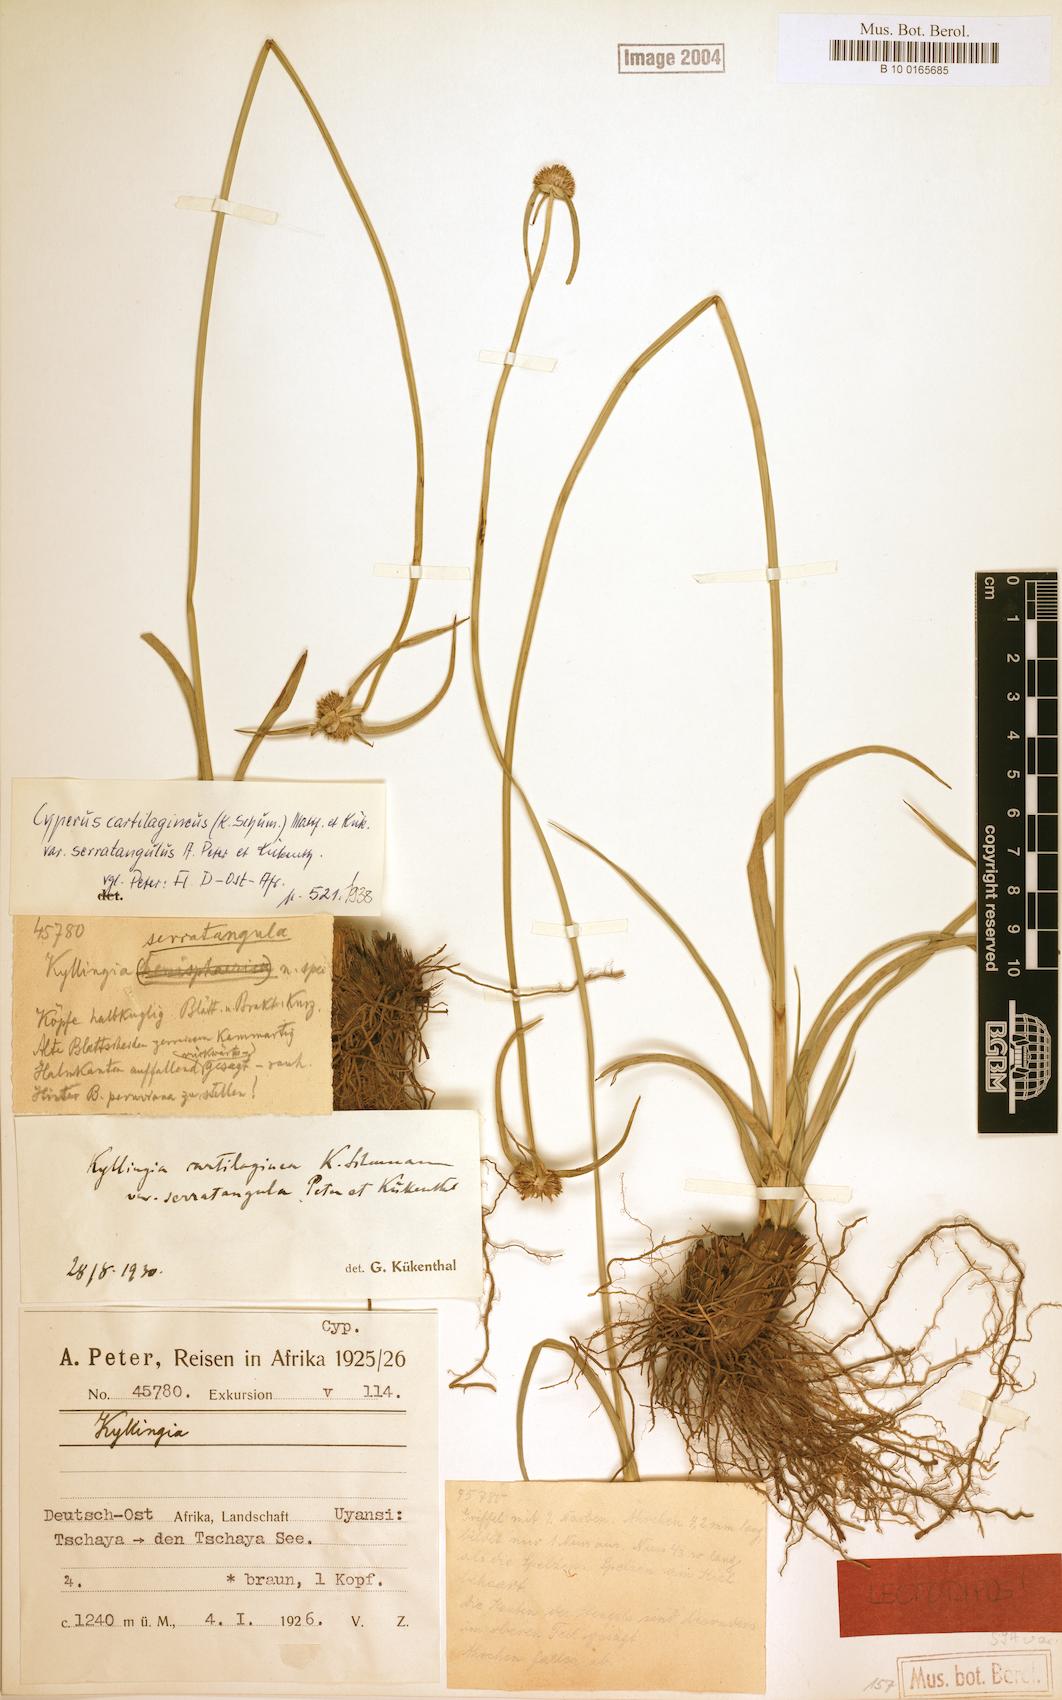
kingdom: Plantae
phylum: Tracheophyta
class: Liliopsida
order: Poales
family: Cyperaceae
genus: Cyperus
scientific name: Cyperus serratangulus
